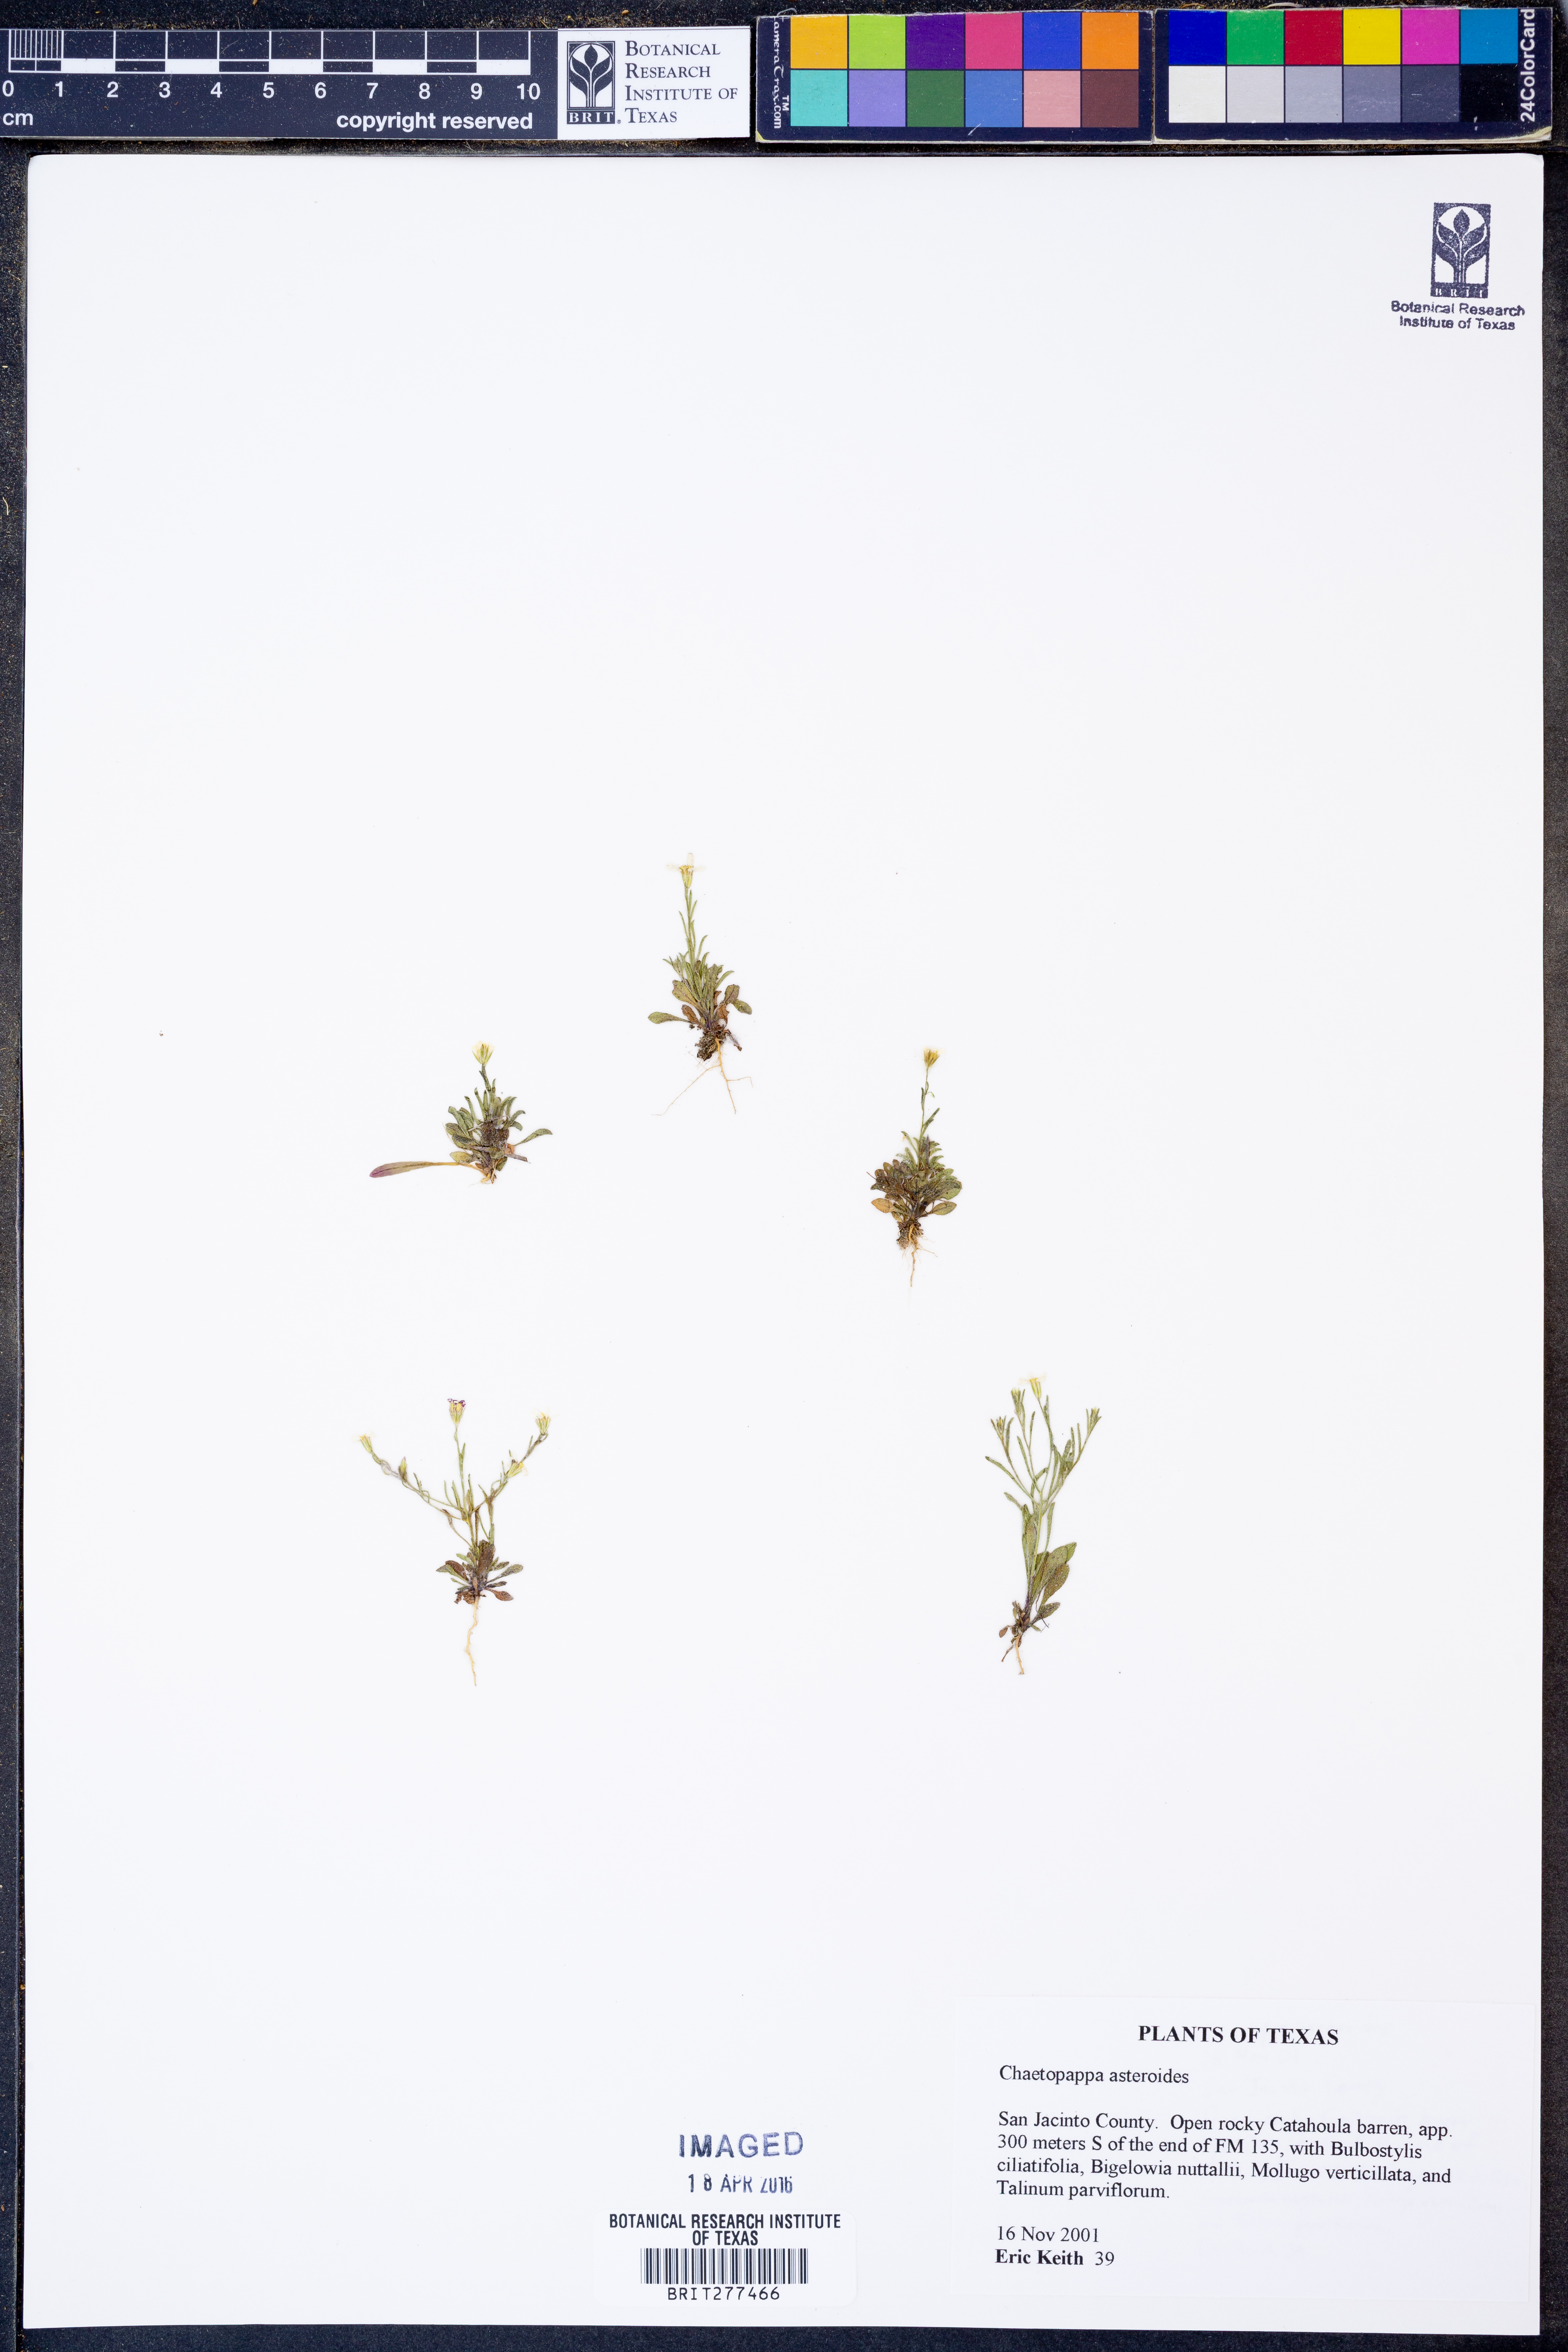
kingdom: Plantae
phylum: Tracheophyta
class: Magnoliopsida
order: Asterales
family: Asteraceae
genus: Chaetopappa
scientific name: Chaetopappa asteroides
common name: Tiny lazy daisy
